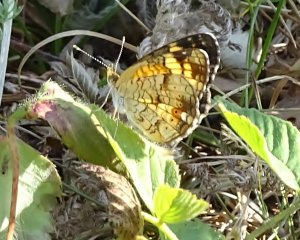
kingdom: Animalia
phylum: Arthropoda
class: Insecta
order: Lepidoptera
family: Nymphalidae
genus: Phyciodes
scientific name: Phyciodes tharos
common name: Pearl Crescent
